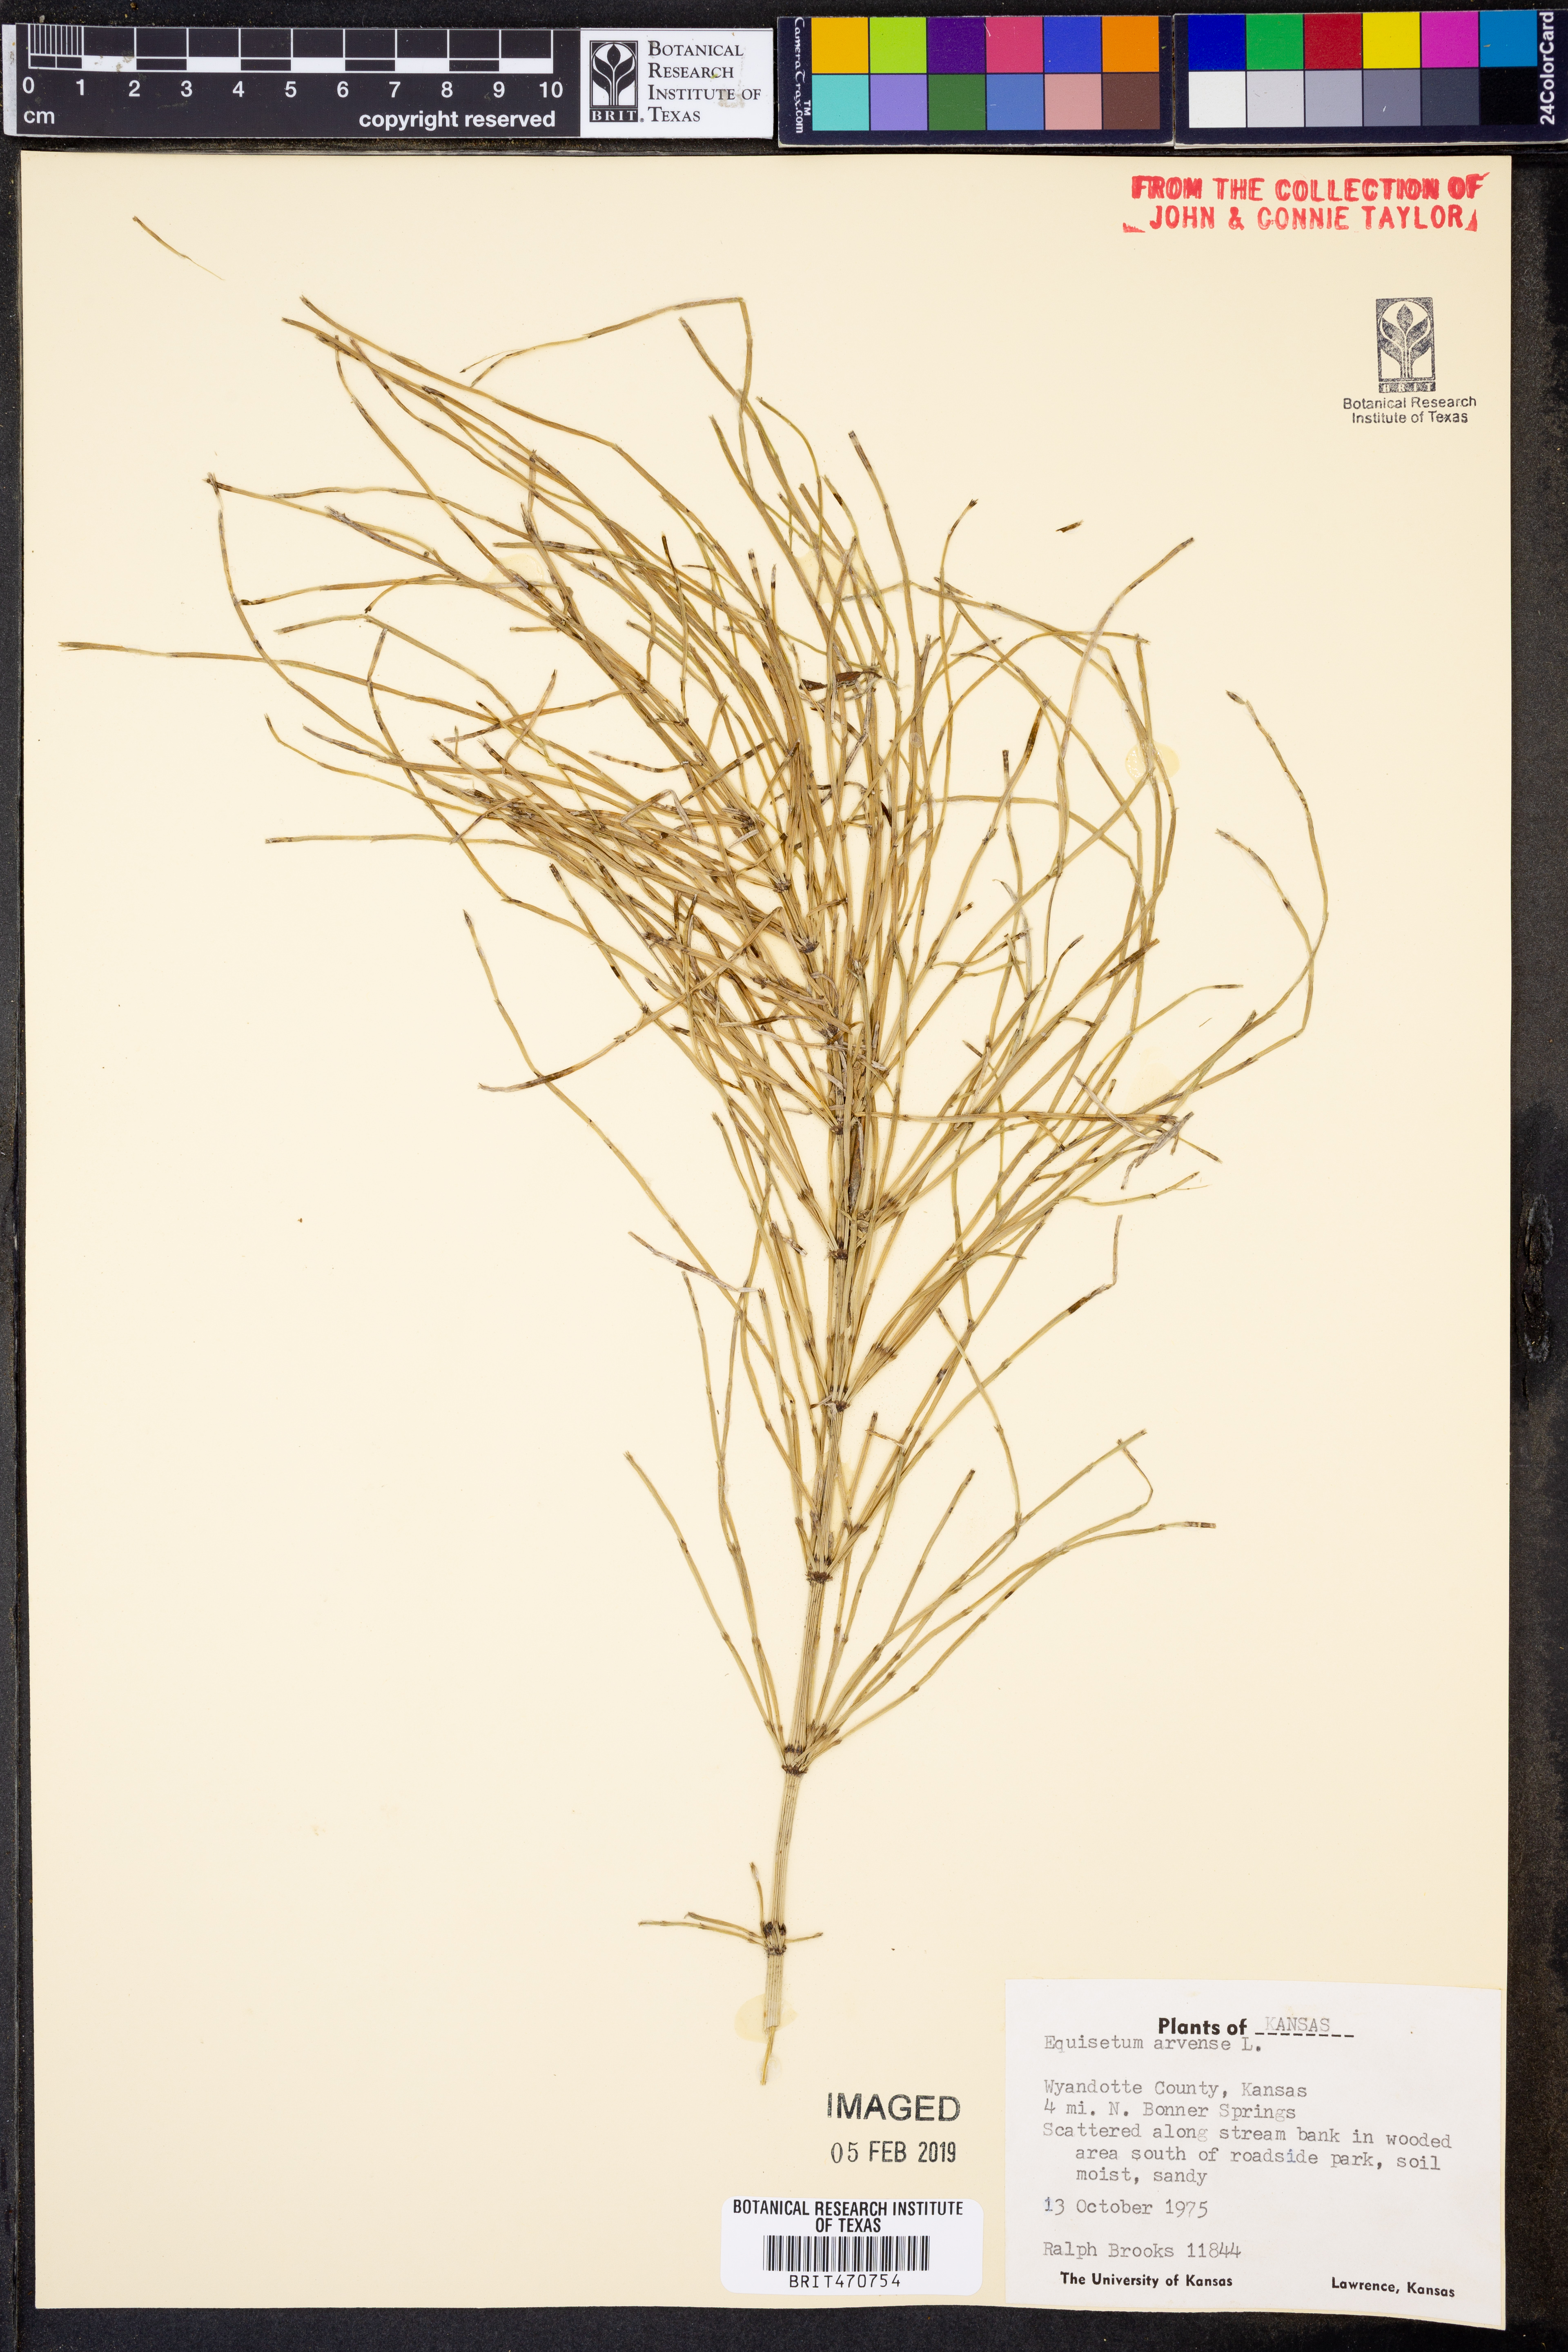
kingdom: Plantae
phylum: Tracheophyta
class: Polypodiopsida
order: Equisetales
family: Equisetaceae
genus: Equisetum
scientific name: Equisetum arvense
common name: Field horsetail
